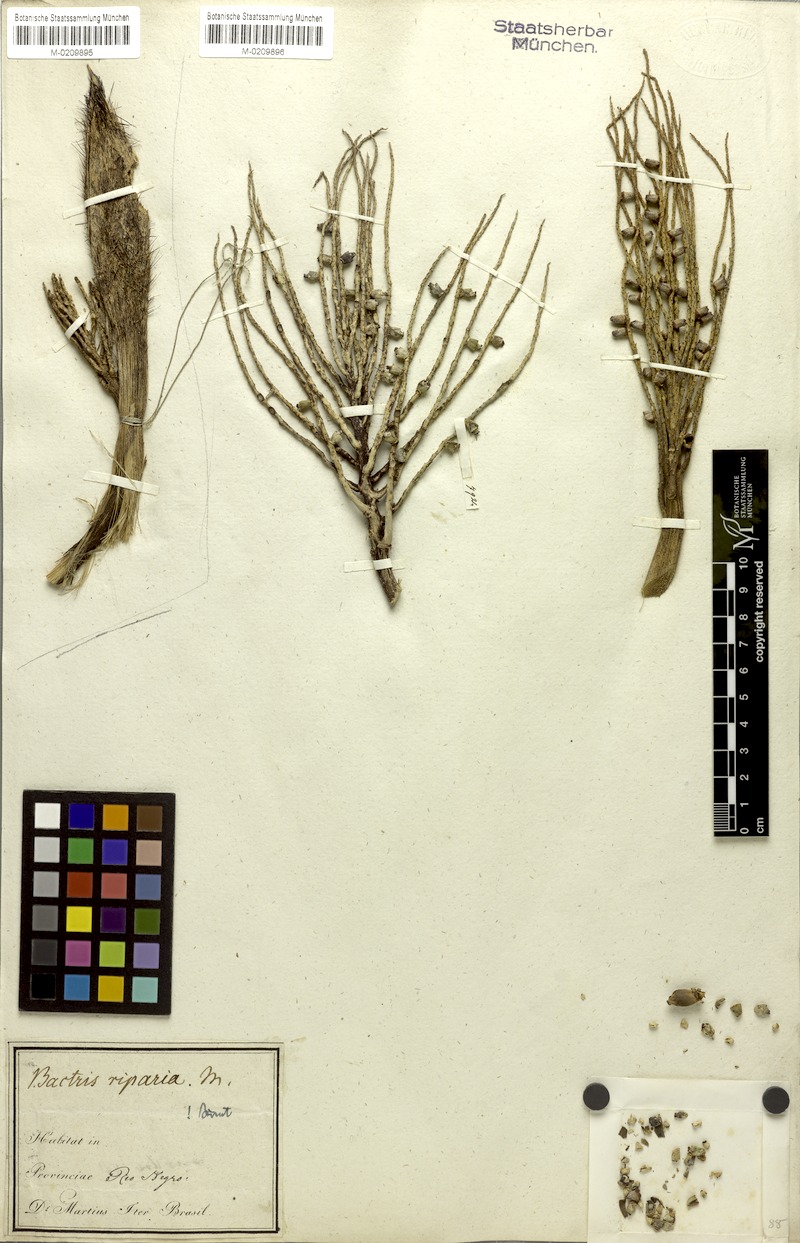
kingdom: Plantae
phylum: Tracheophyta
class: Liliopsida
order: Arecales
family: Arecaceae
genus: Bactris
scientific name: Bactris
